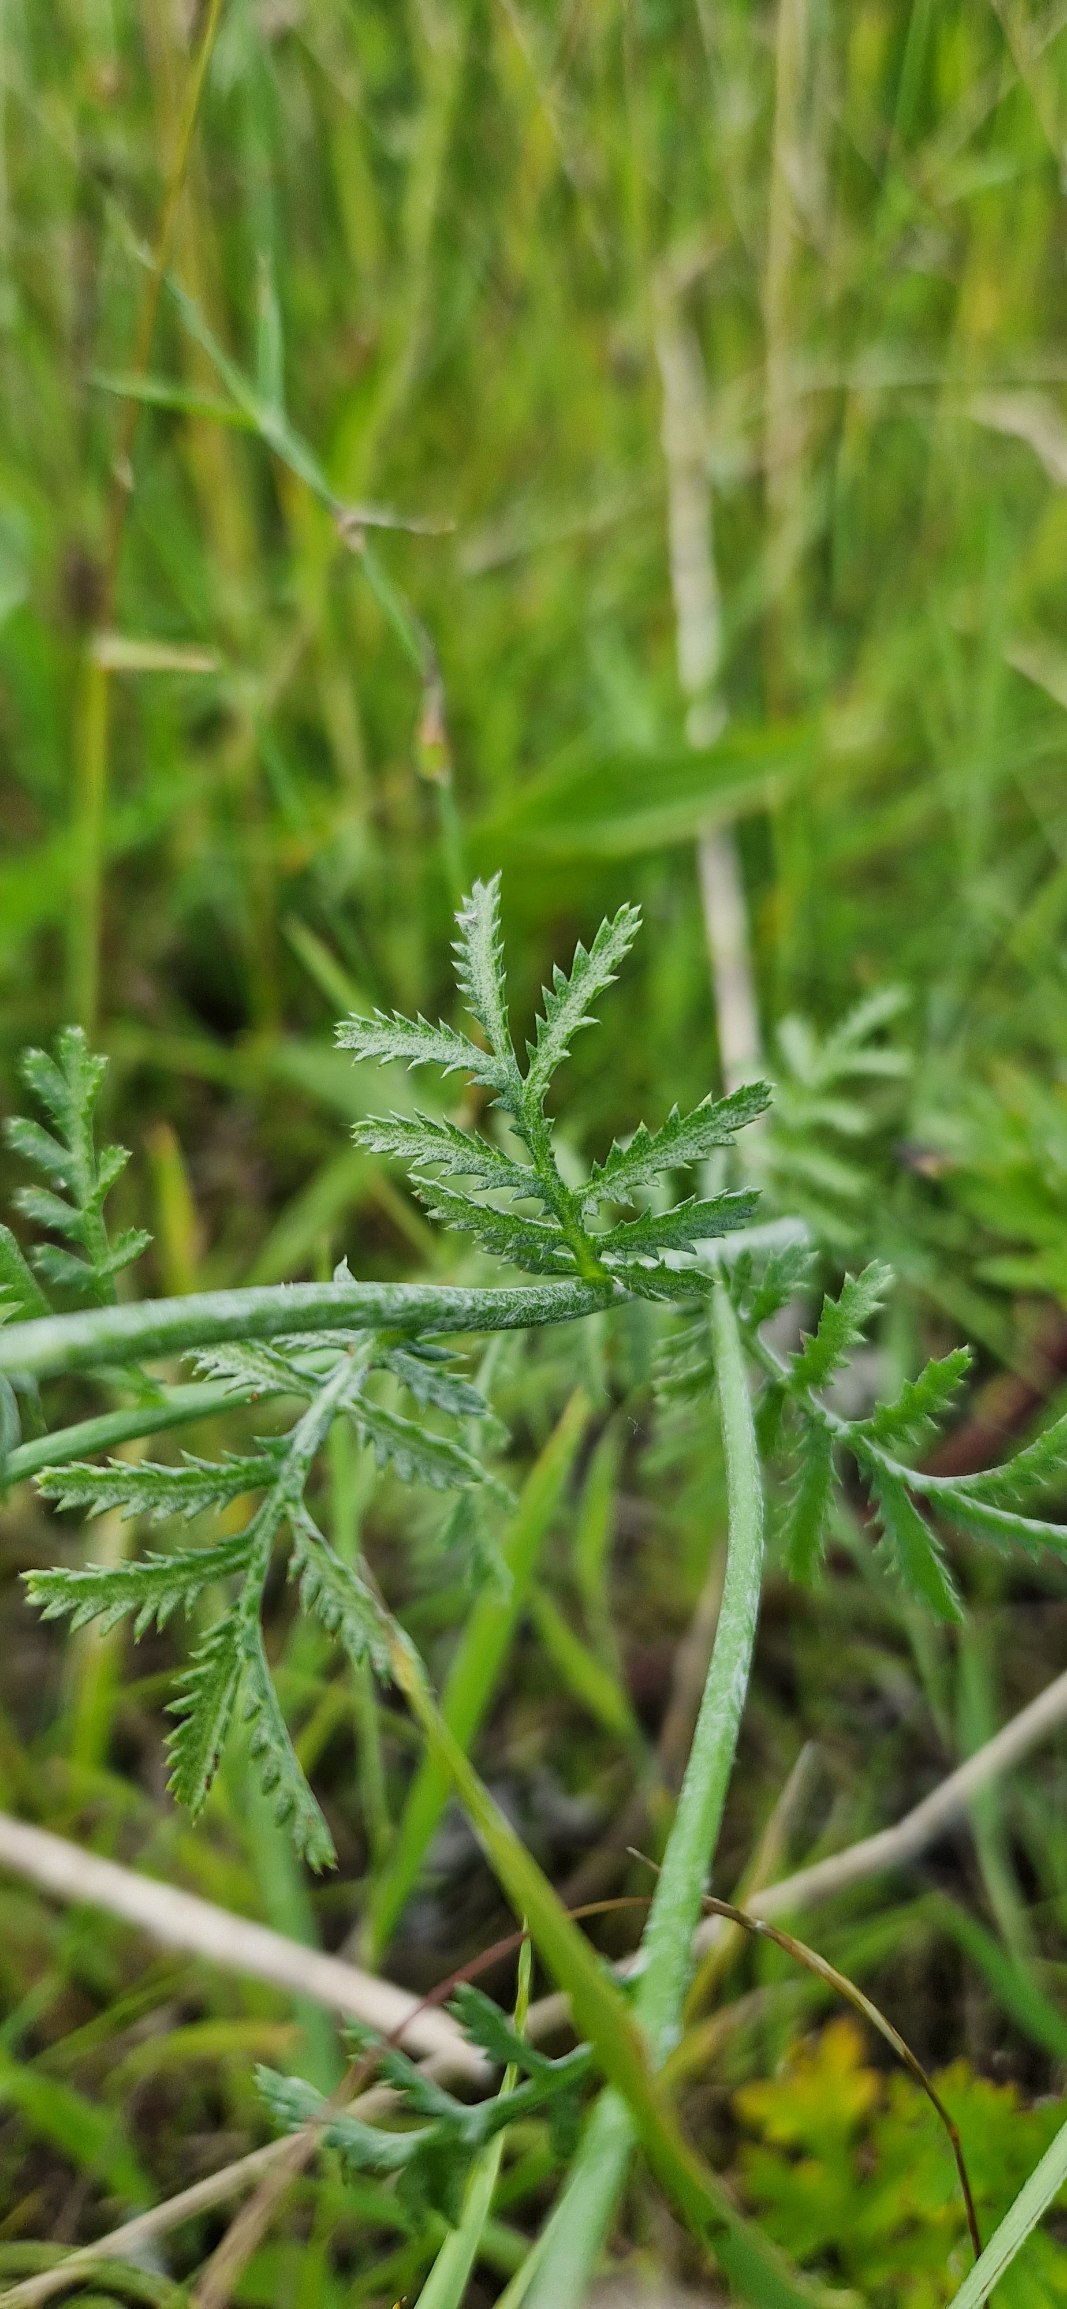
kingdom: Plantae
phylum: Tracheophyta
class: Magnoliopsida
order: Asterales
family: Asteraceae
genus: Cota
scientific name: Cota tinctoria
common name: Farve-gåseurt
